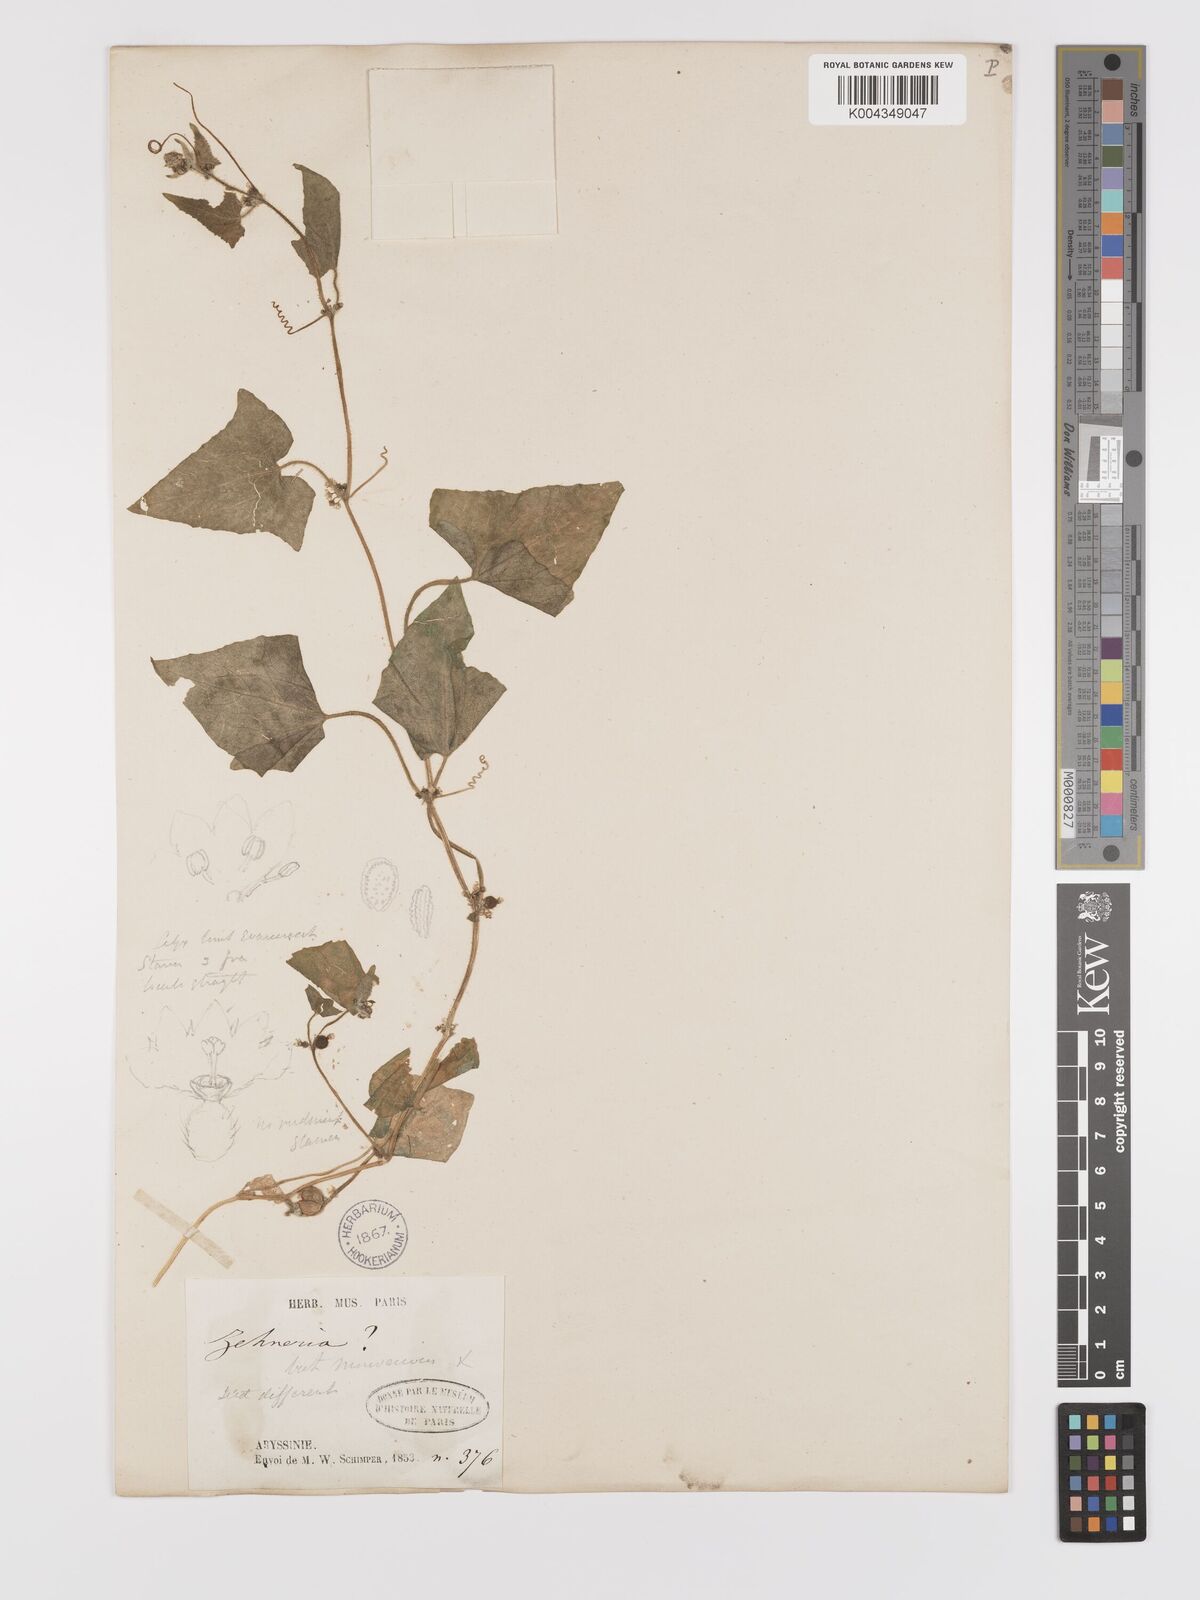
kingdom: Plantae
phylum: Tracheophyta
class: Magnoliopsida
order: Cucurbitales
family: Cucurbitaceae
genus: Cucumis
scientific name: Cucumis maderaspatanus
